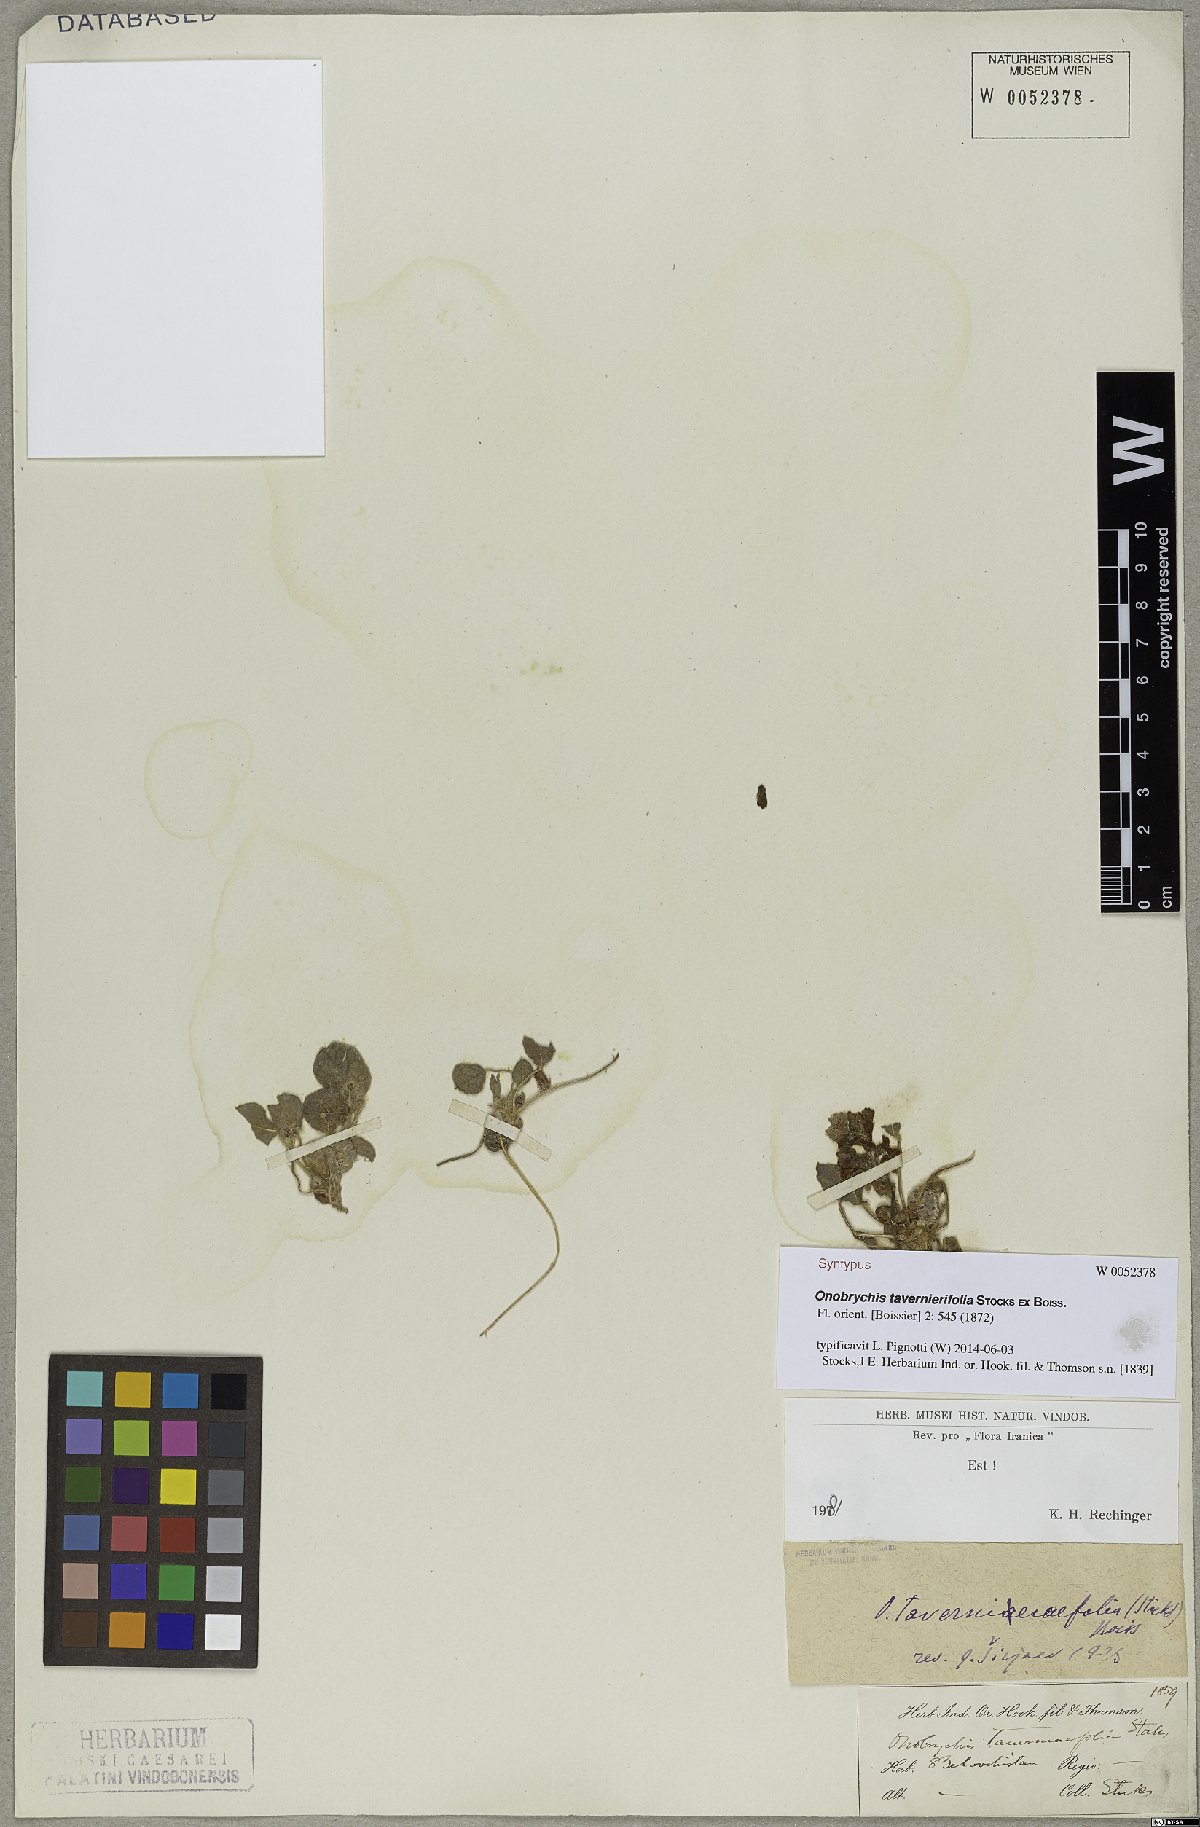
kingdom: Plantae
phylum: Tracheophyta
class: Magnoliopsida
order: Fabales
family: Fabaceae
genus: Onobrychis
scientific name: Onobrychis tavernierifolia
